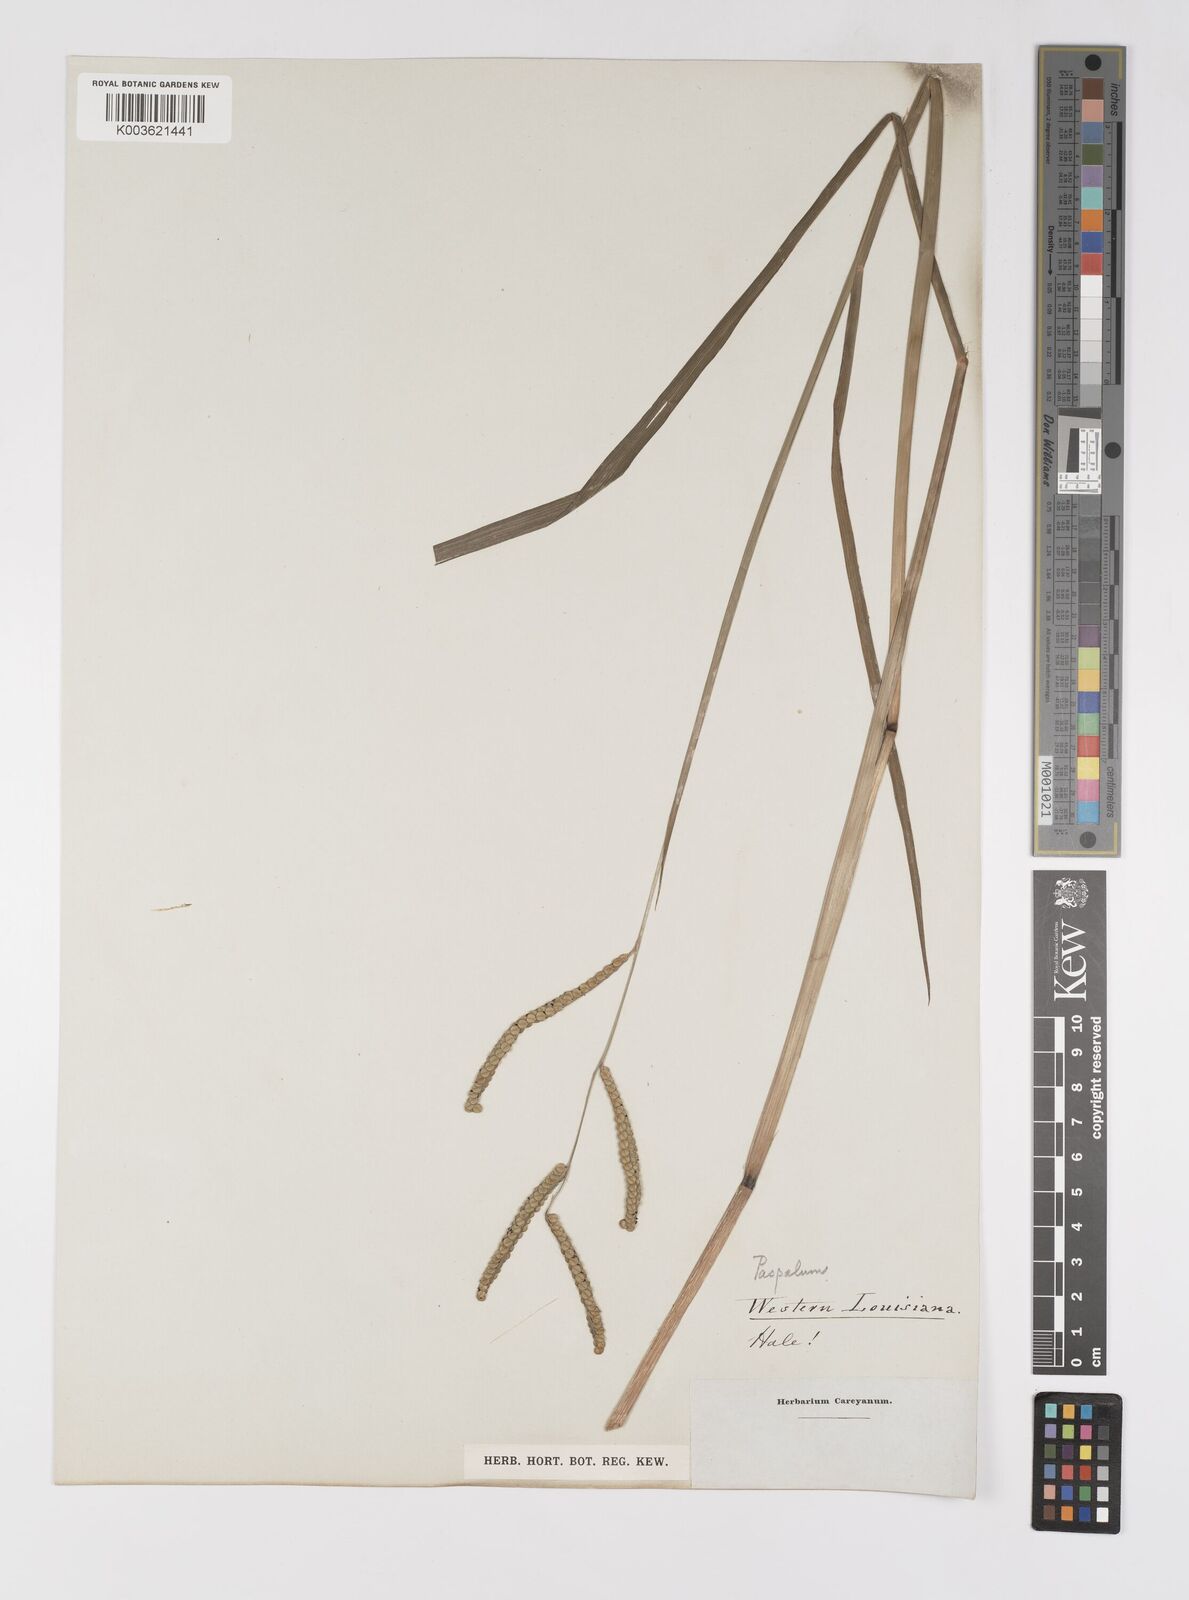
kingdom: Plantae
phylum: Tracheophyta
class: Liliopsida
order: Poales
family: Poaceae
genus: Paspalum
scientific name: Paspalum
